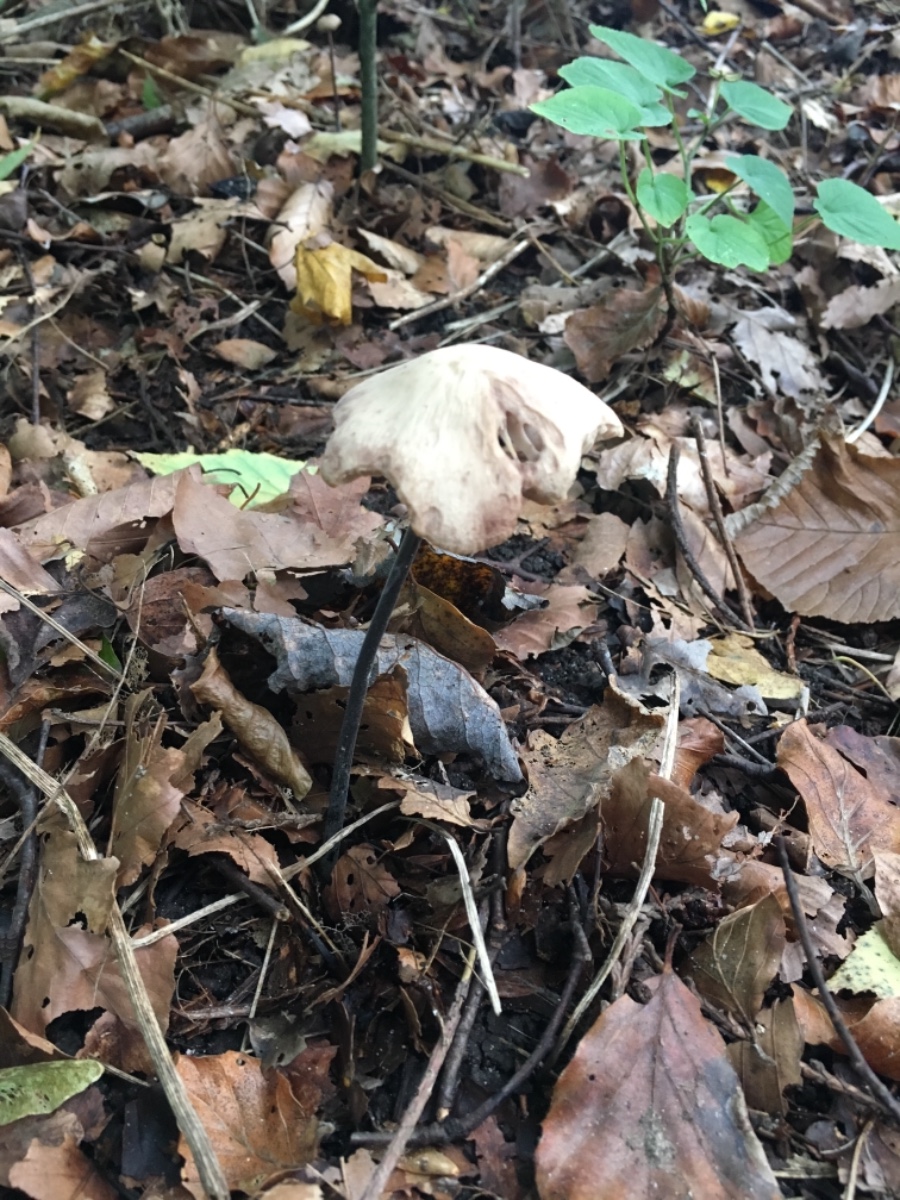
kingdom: Fungi
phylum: Basidiomycota
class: Agaricomycetes
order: Agaricales
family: Omphalotaceae
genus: Mycetinis
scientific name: Mycetinis alliaceus
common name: stor løghat
